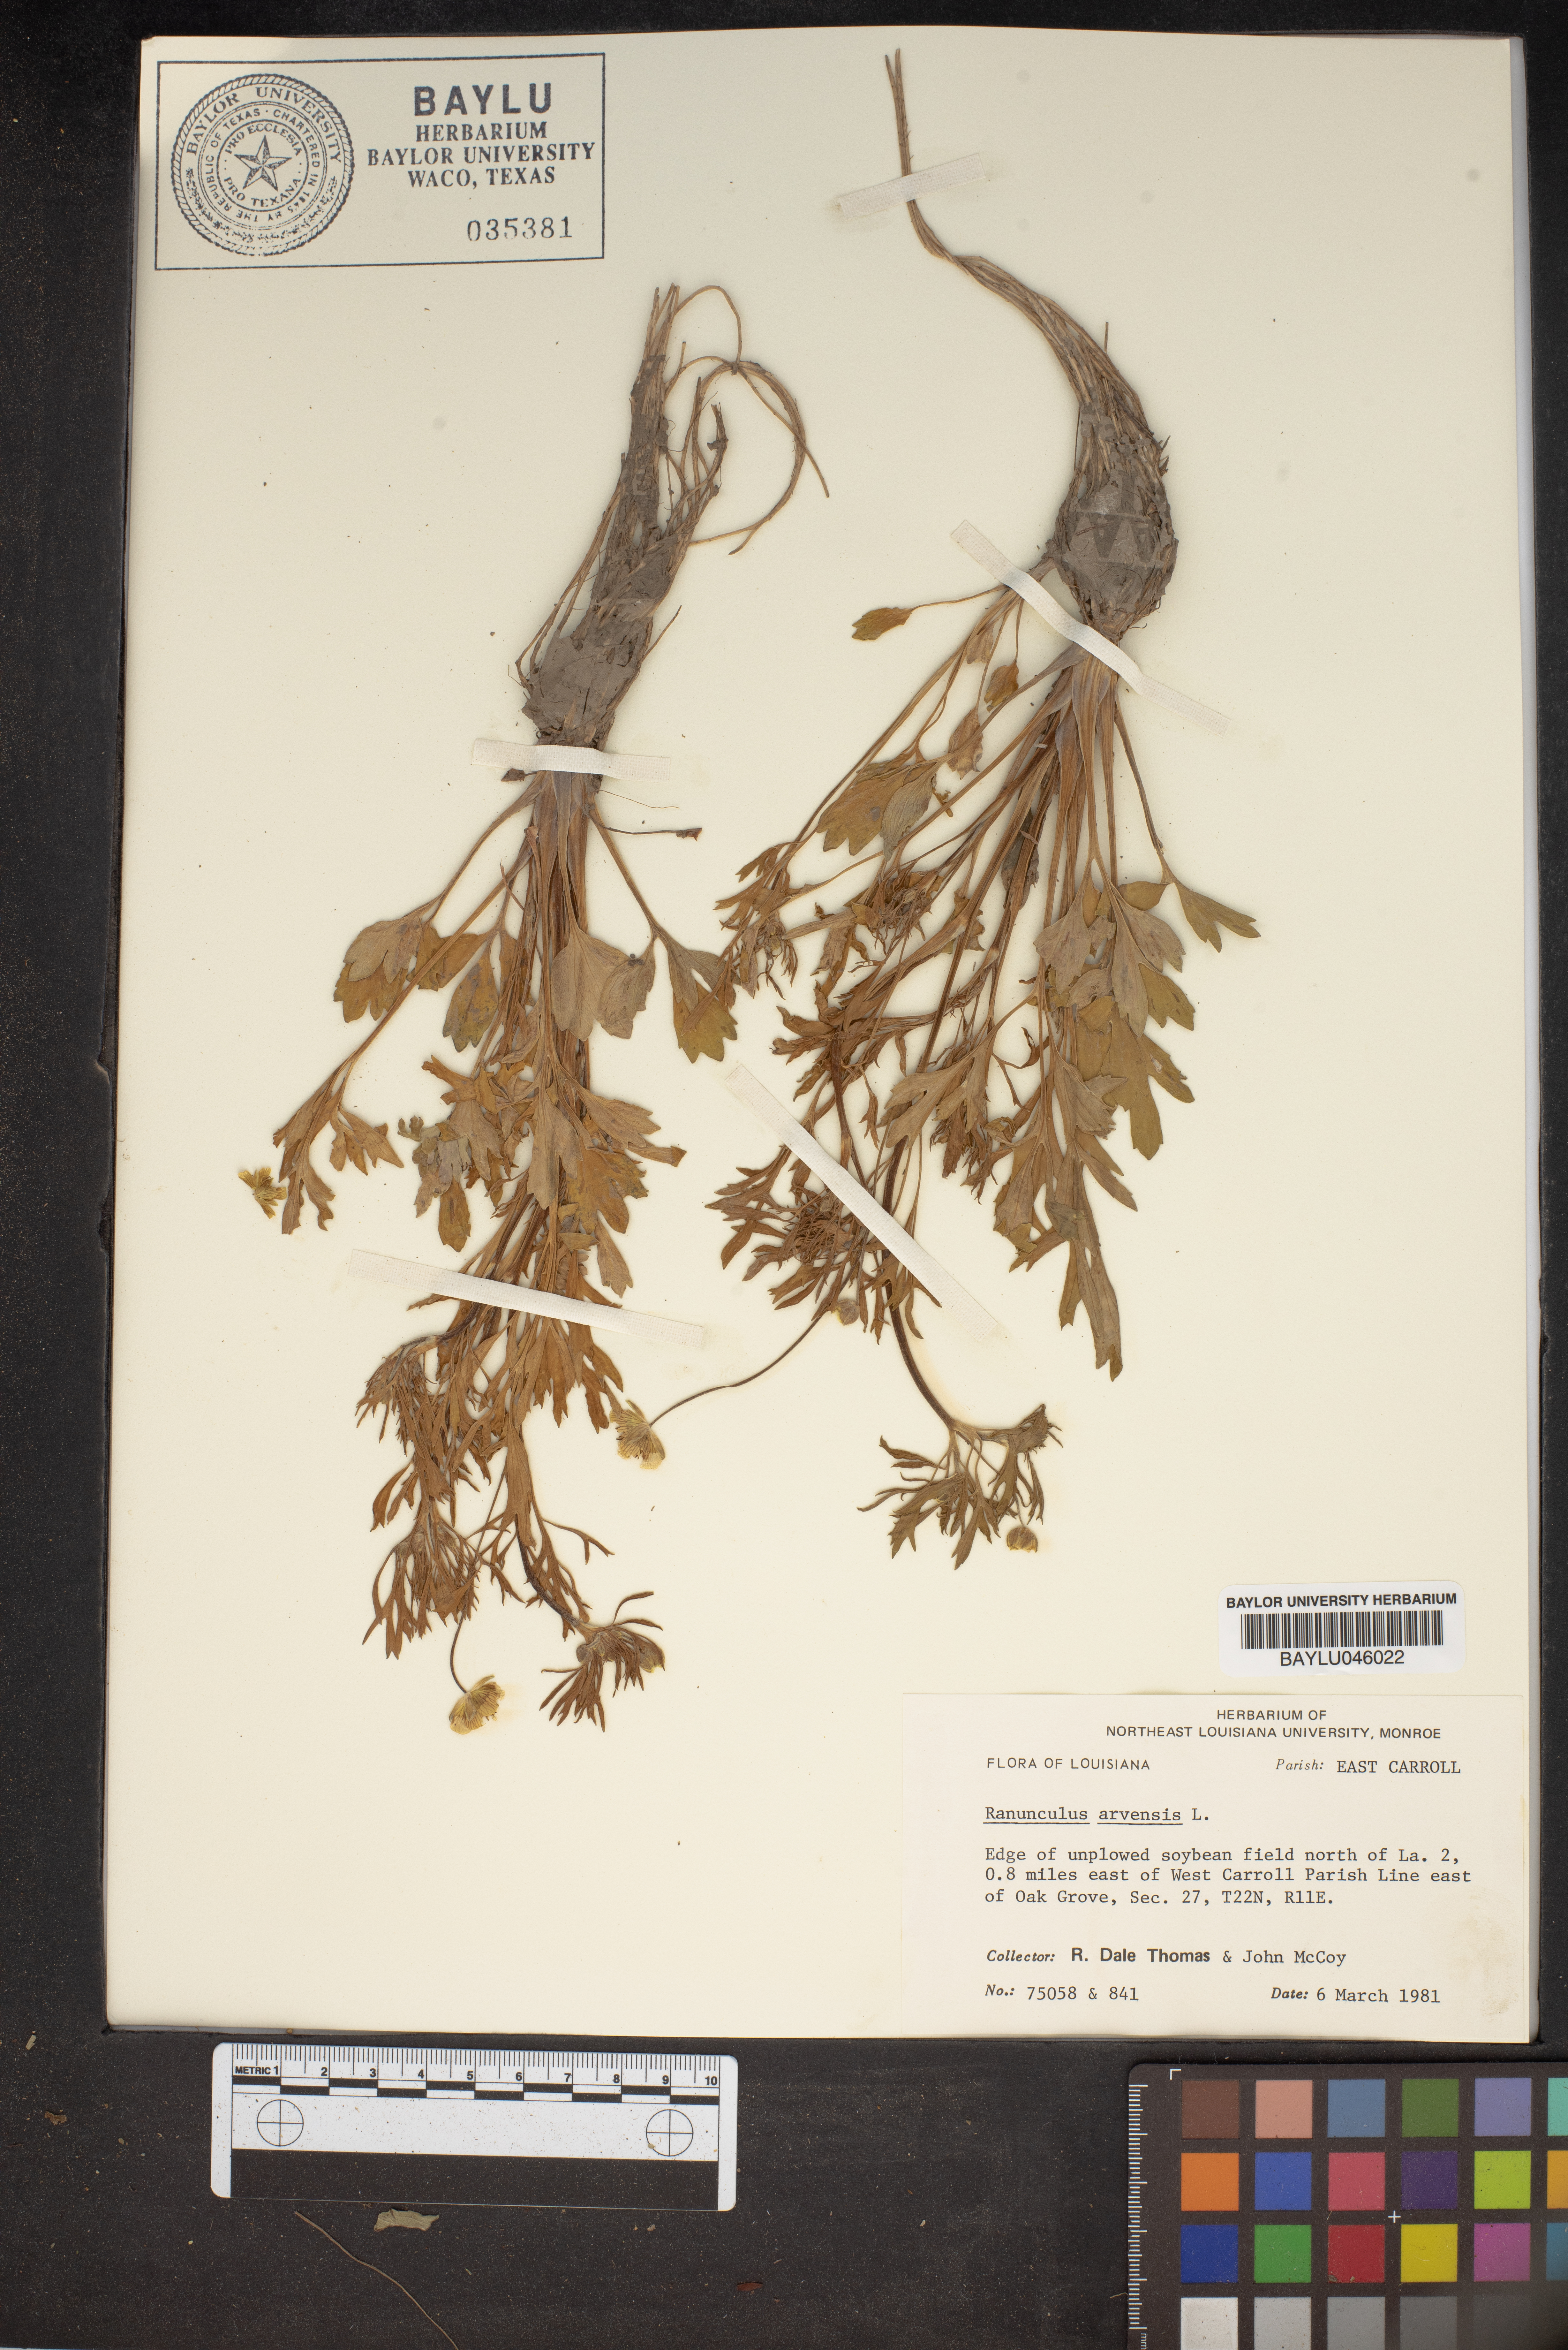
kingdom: Plantae
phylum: Tracheophyta
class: Magnoliopsida
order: Ranunculales
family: Ranunculaceae
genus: Ranunculus
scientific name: Ranunculus arvensis
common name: Corn buttercup
